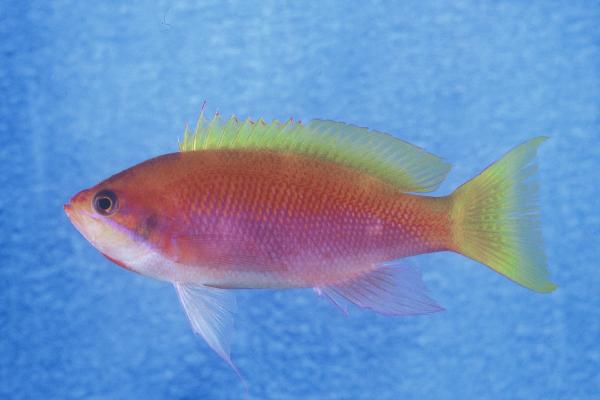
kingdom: Animalia
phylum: Chordata
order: Perciformes
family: Serranidae
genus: Pseudanthias
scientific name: Pseudanthias heemstrai
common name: Orangehead anthias
